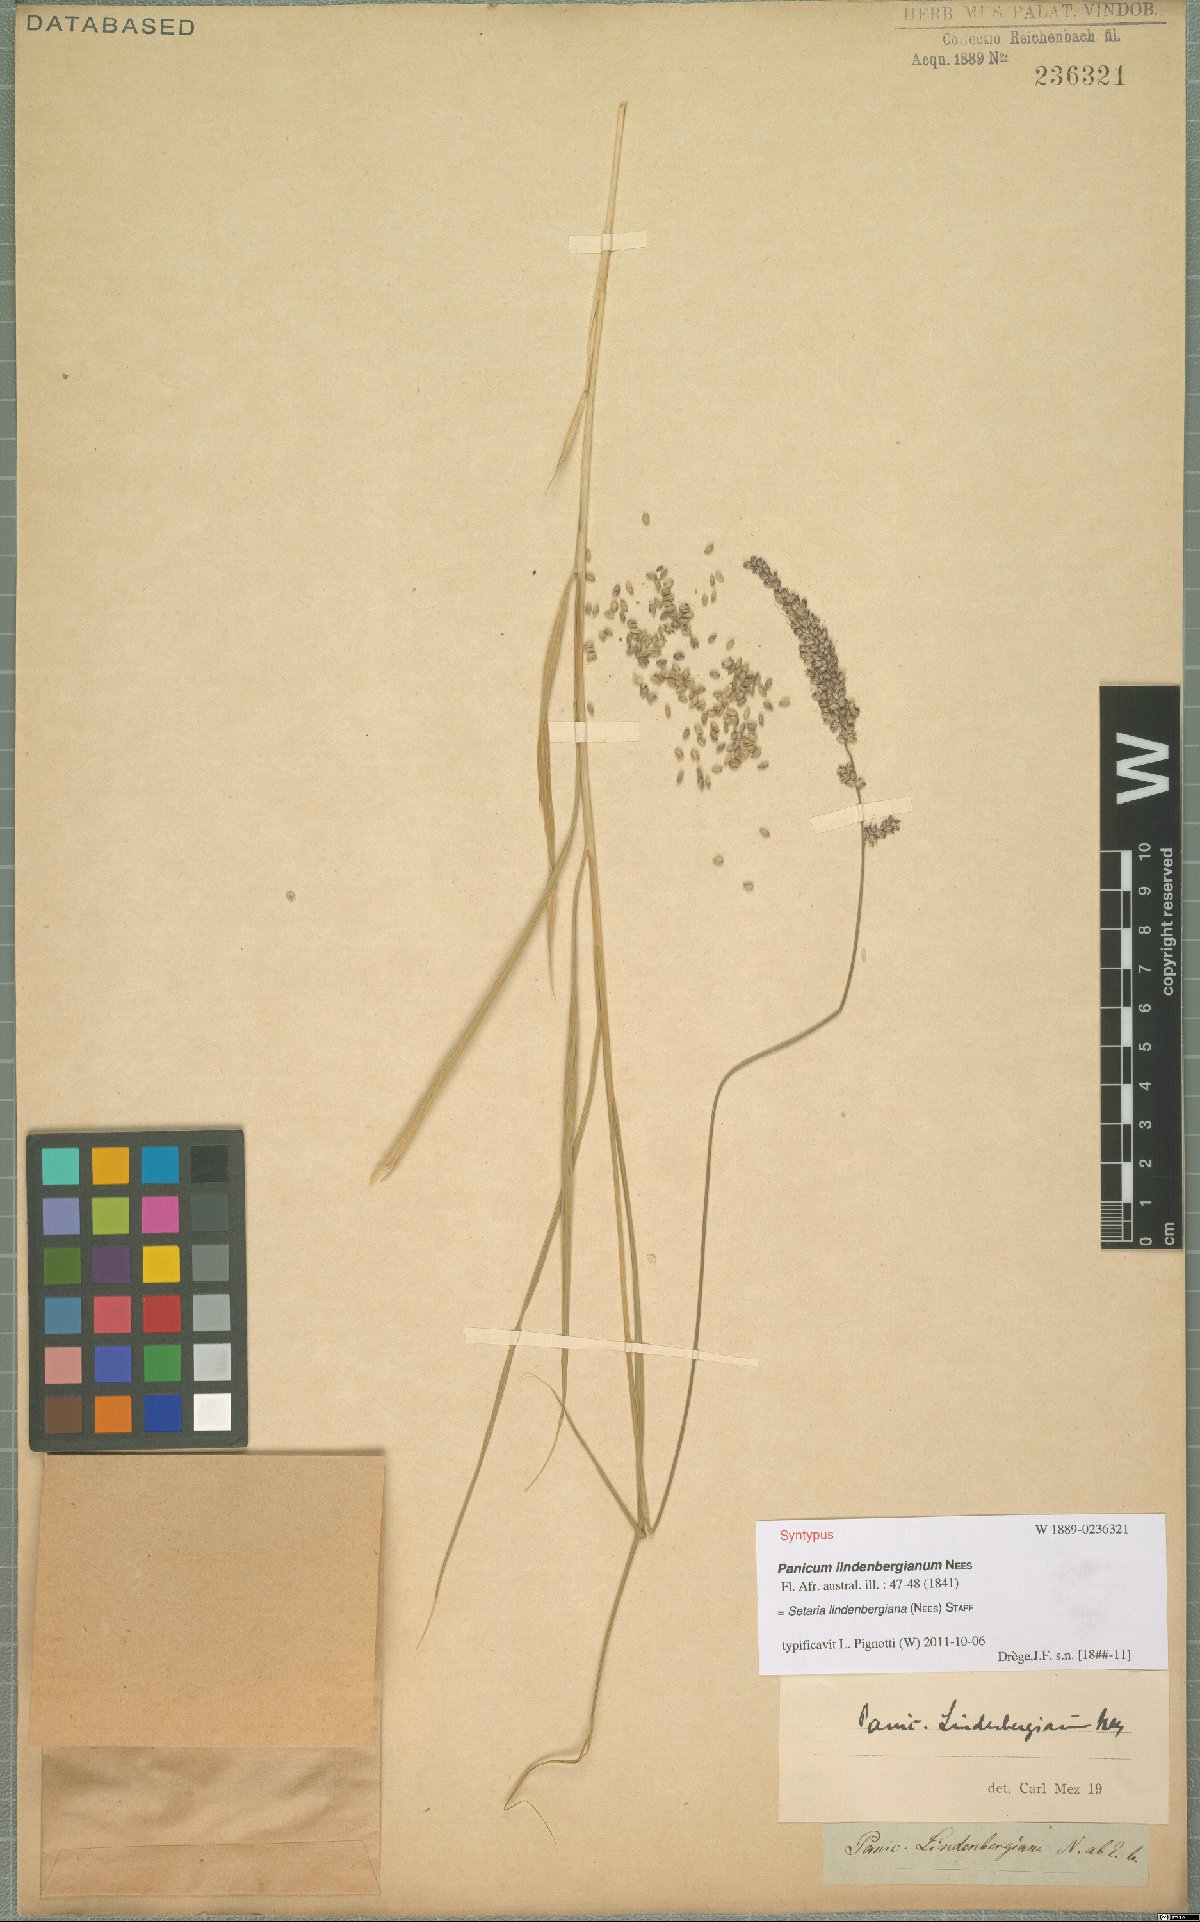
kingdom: Plantae
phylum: Tracheophyta
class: Liliopsida
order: Poales
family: Poaceae
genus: Setaria
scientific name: Setaria lindenbergiana
